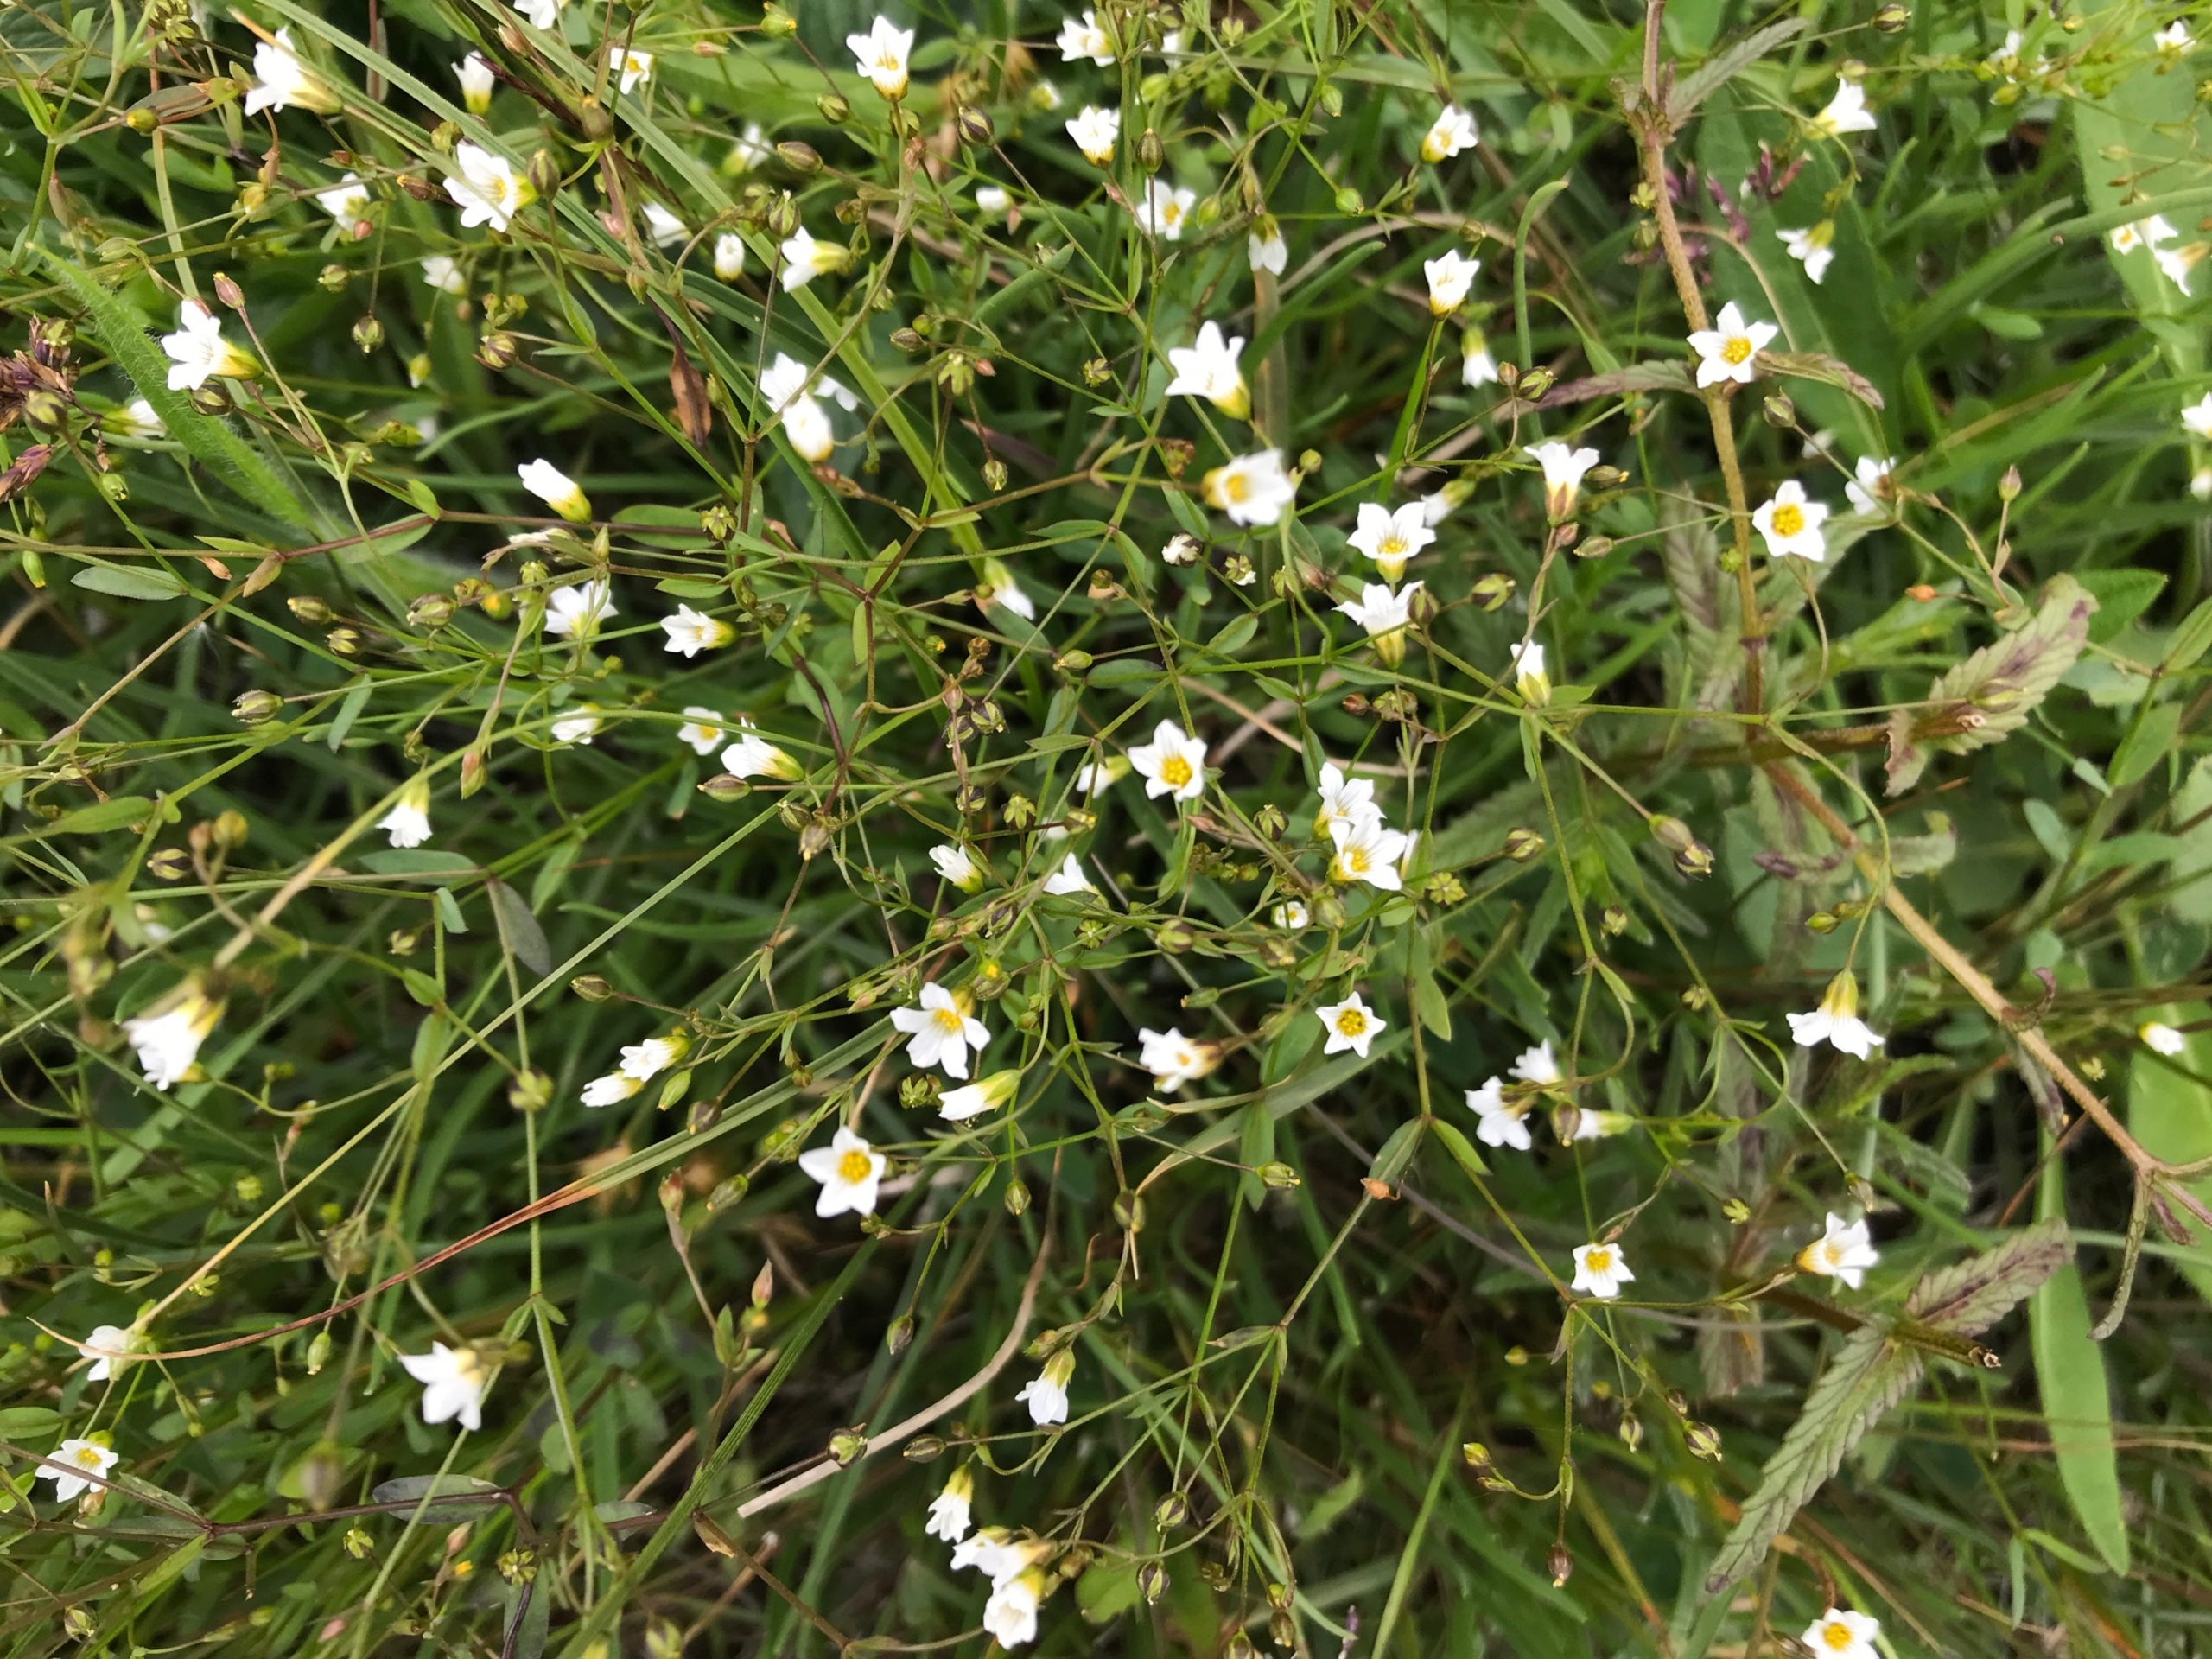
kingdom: Plantae
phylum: Tracheophyta
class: Magnoliopsida
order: Malpighiales
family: Linaceae
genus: Linum
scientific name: Linum catharticum
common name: Vild hør
